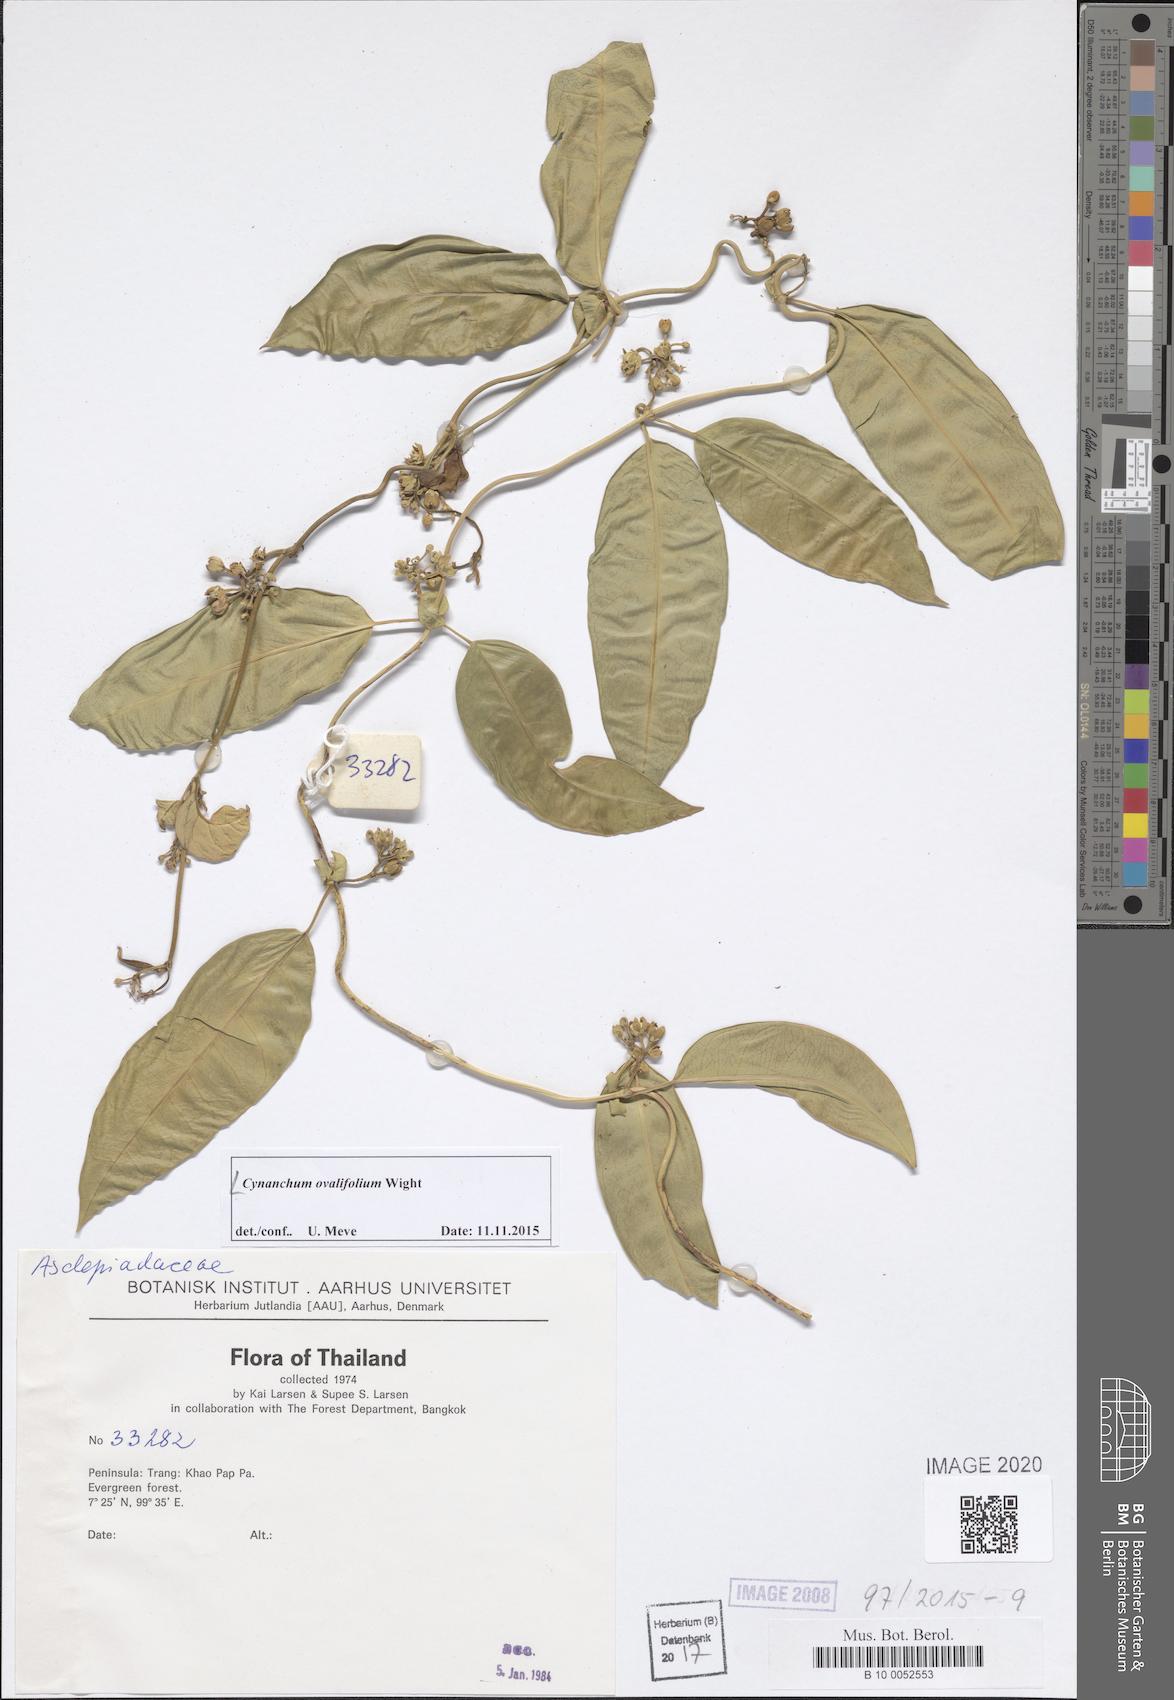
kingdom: Plantae
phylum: Tracheophyta
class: Magnoliopsida
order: Gentianales
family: Apocynaceae
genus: Cynanchum
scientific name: Cynanchum ovalifolium
